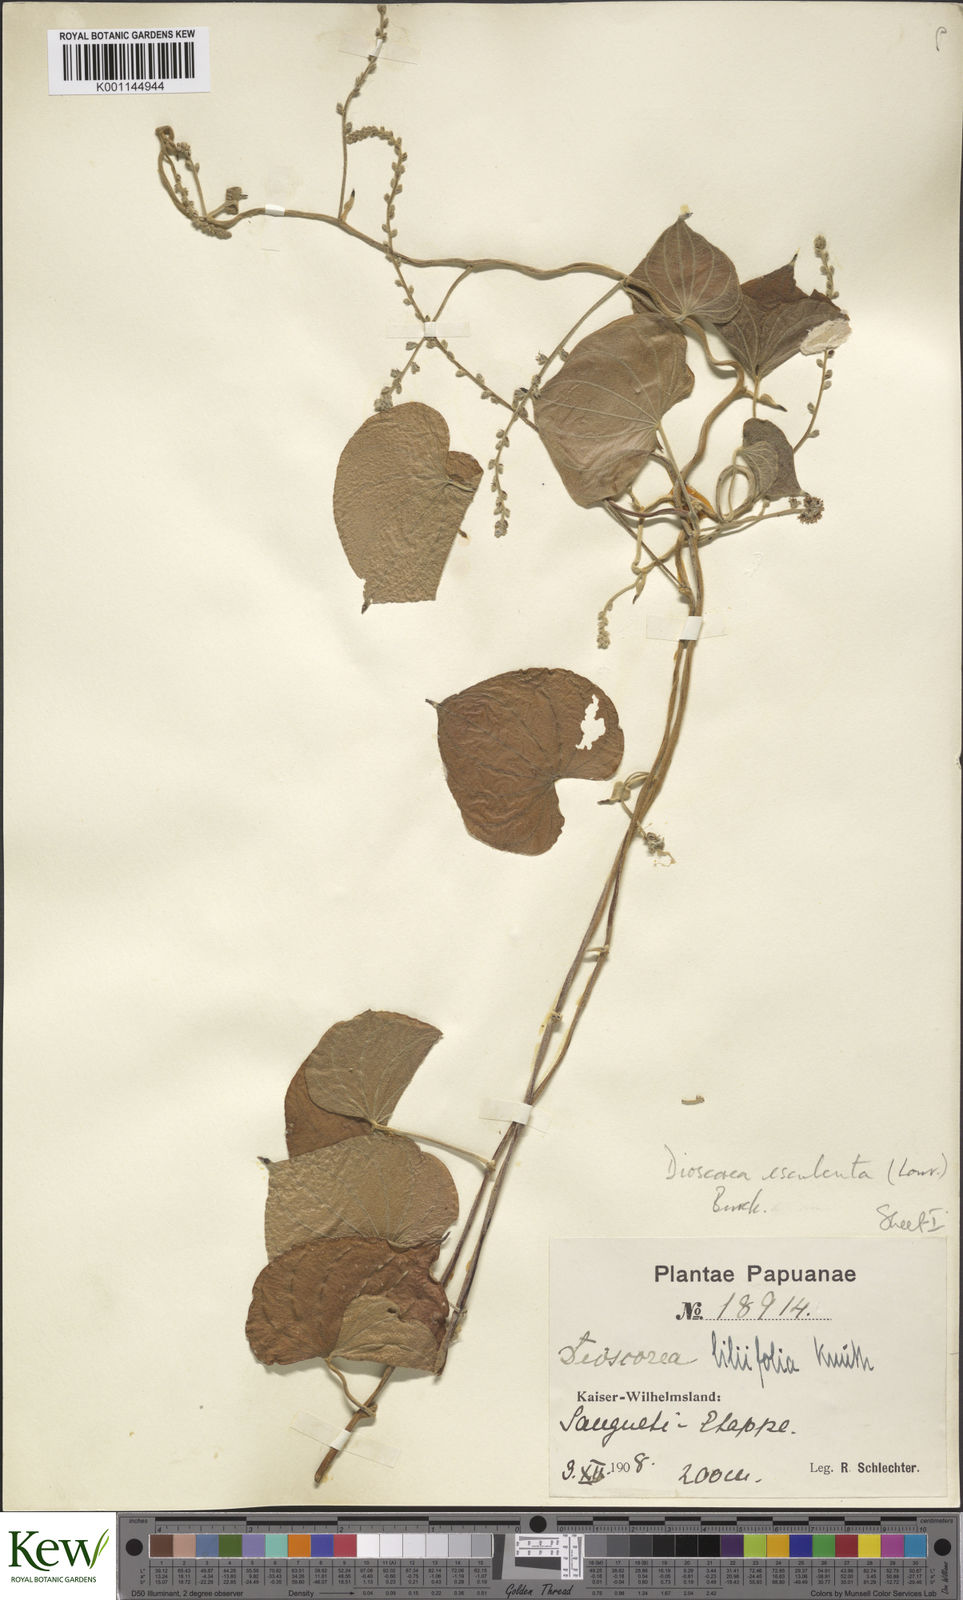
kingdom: Plantae
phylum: Tracheophyta
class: Liliopsida
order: Dioscoreales
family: Dioscoreaceae
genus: Dioscorea
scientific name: Dioscorea esculenta
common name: Chinese yam
